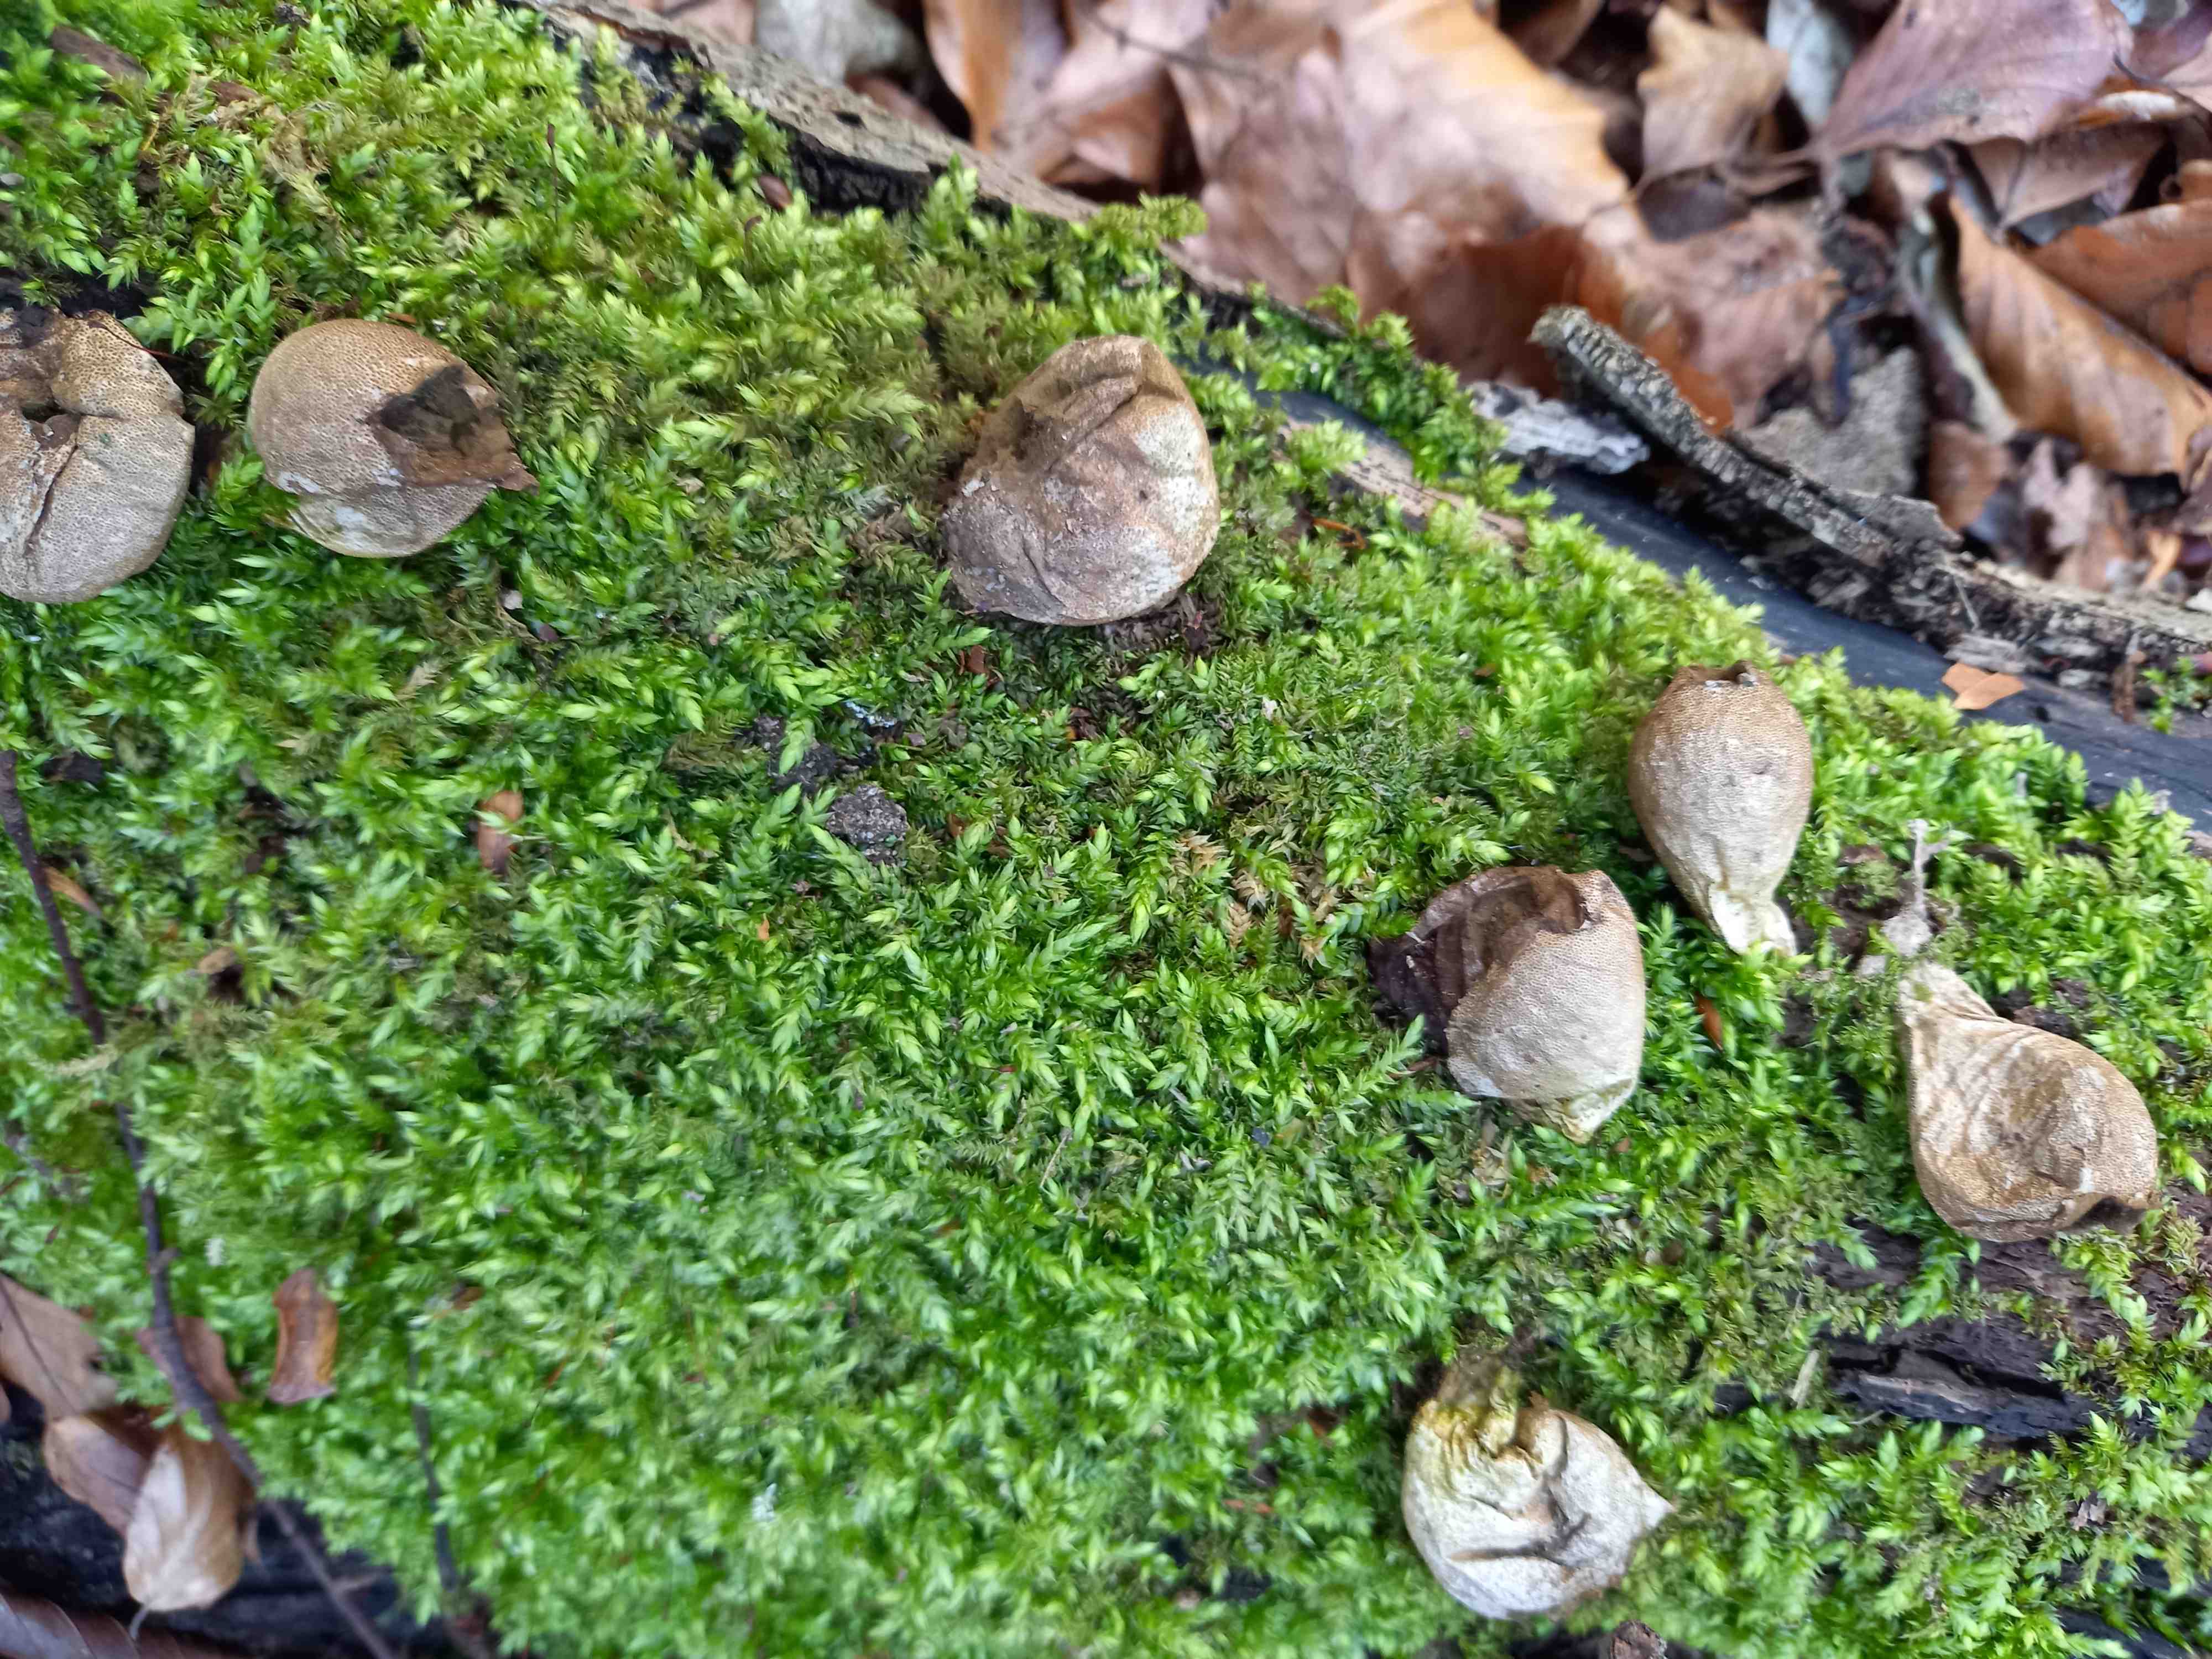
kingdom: Fungi
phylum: Basidiomycota
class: Agaricomycetes
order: Agaricales
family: Lycoperdaceae
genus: Apioperdon
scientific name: Apioperdon pyriforme
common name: pære-støvbold
